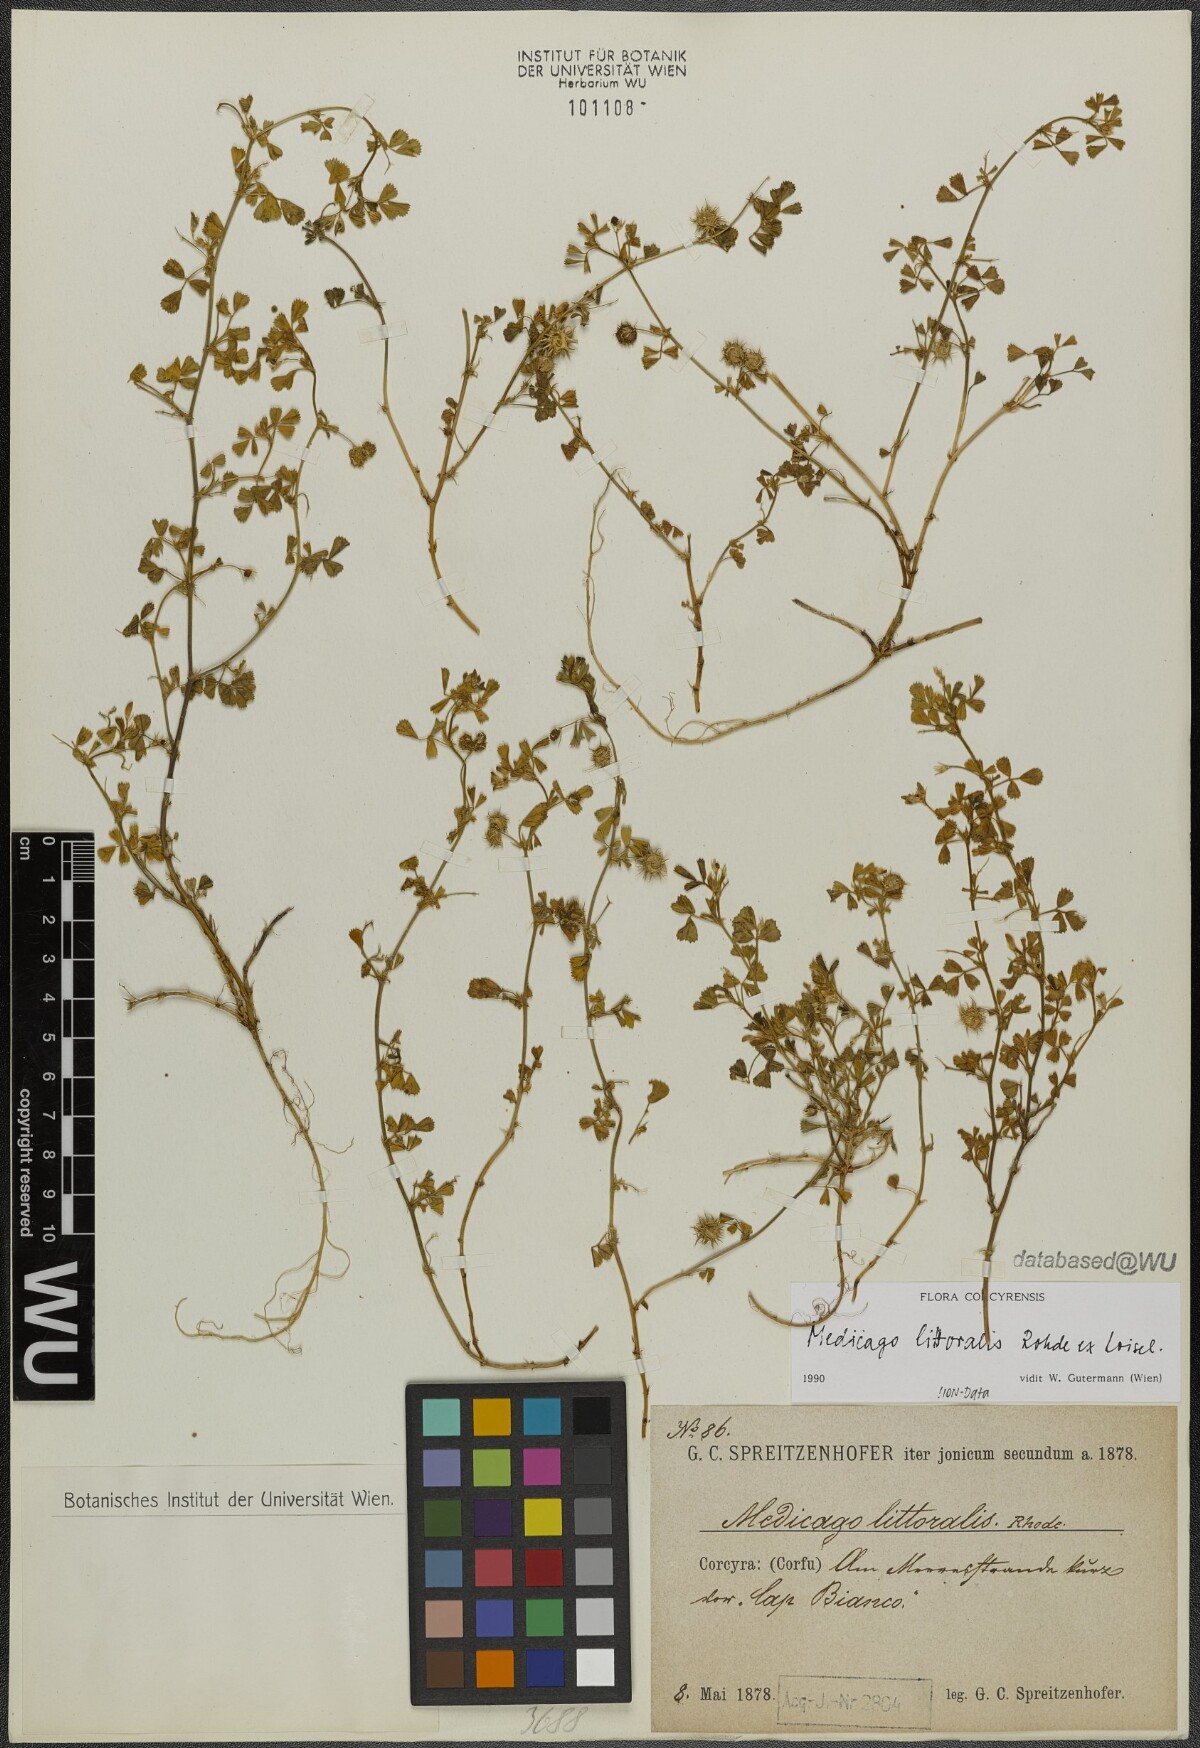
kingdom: Plantae
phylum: Tracheophyta
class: Magnoliopsida
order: Fabales
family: Fabaceae
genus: Medicago
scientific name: Medicago littoralis
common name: Shore medick
